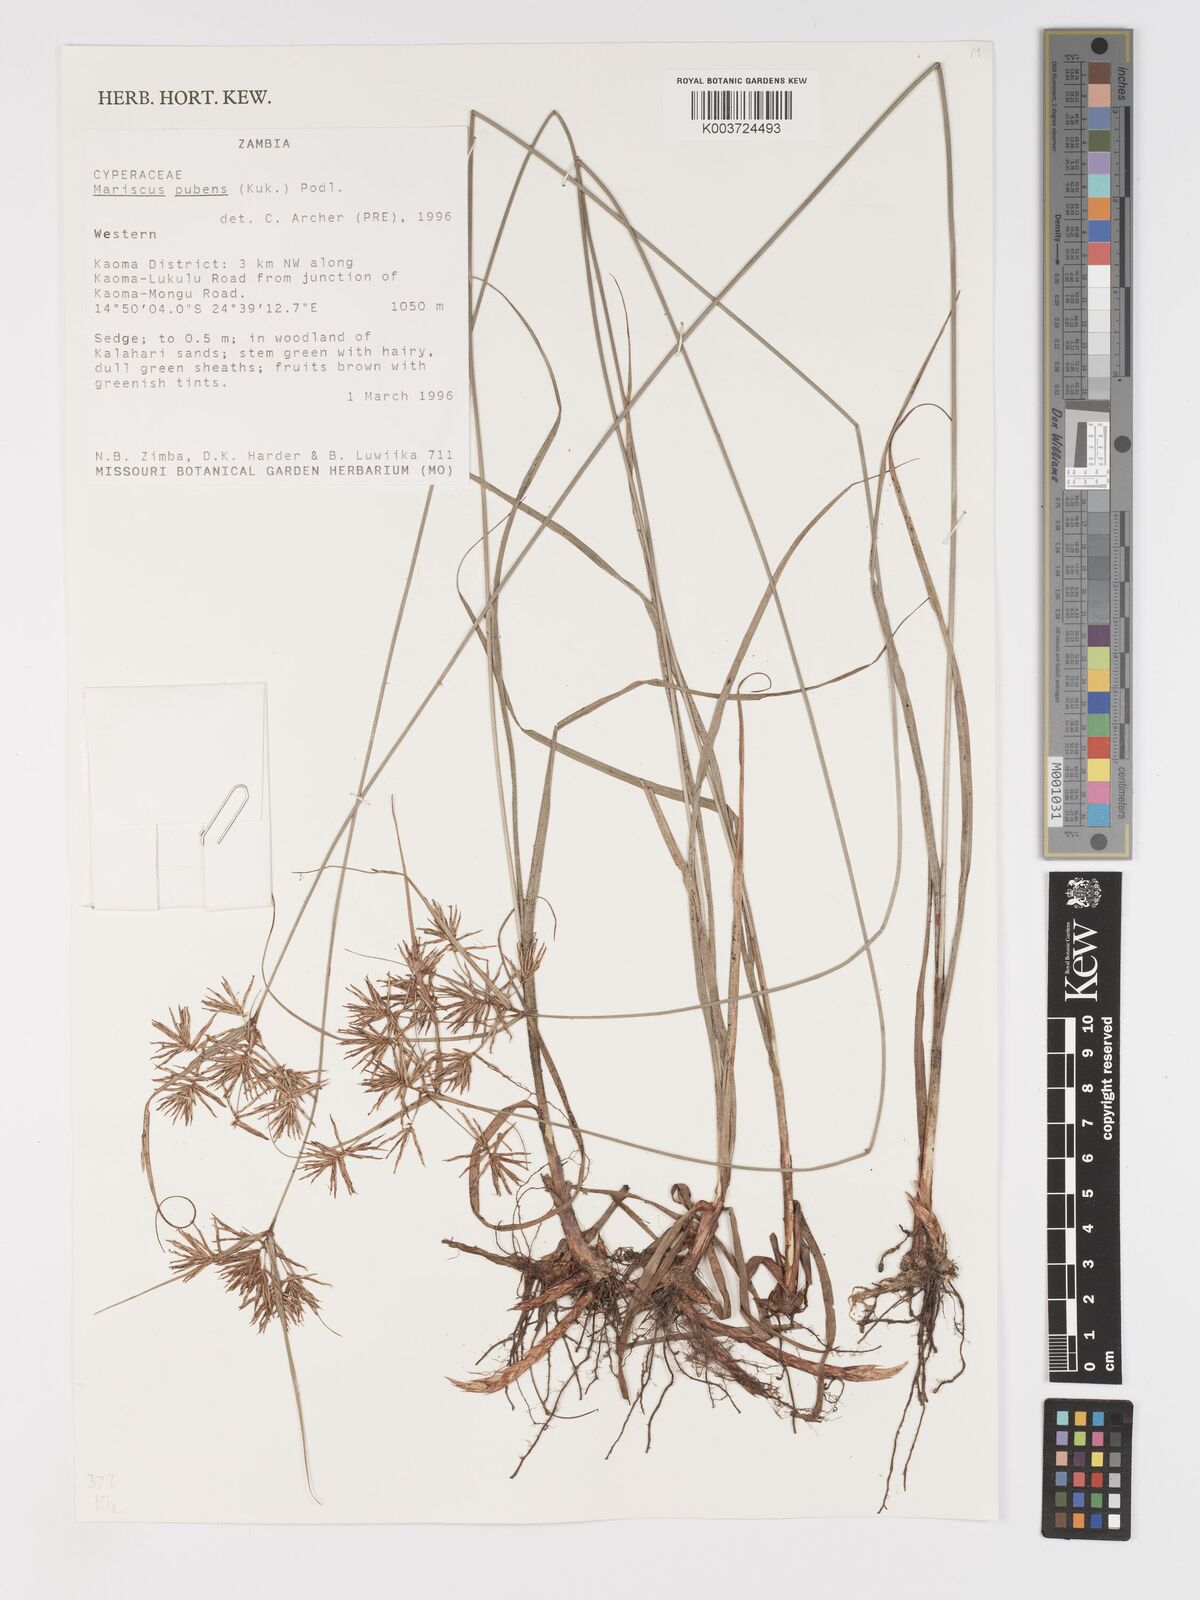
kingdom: Plantae
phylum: Tracheophyta
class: Liliopsida
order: Poales
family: Cyperaceae
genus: Cyperus
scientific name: Cyperus pubens
